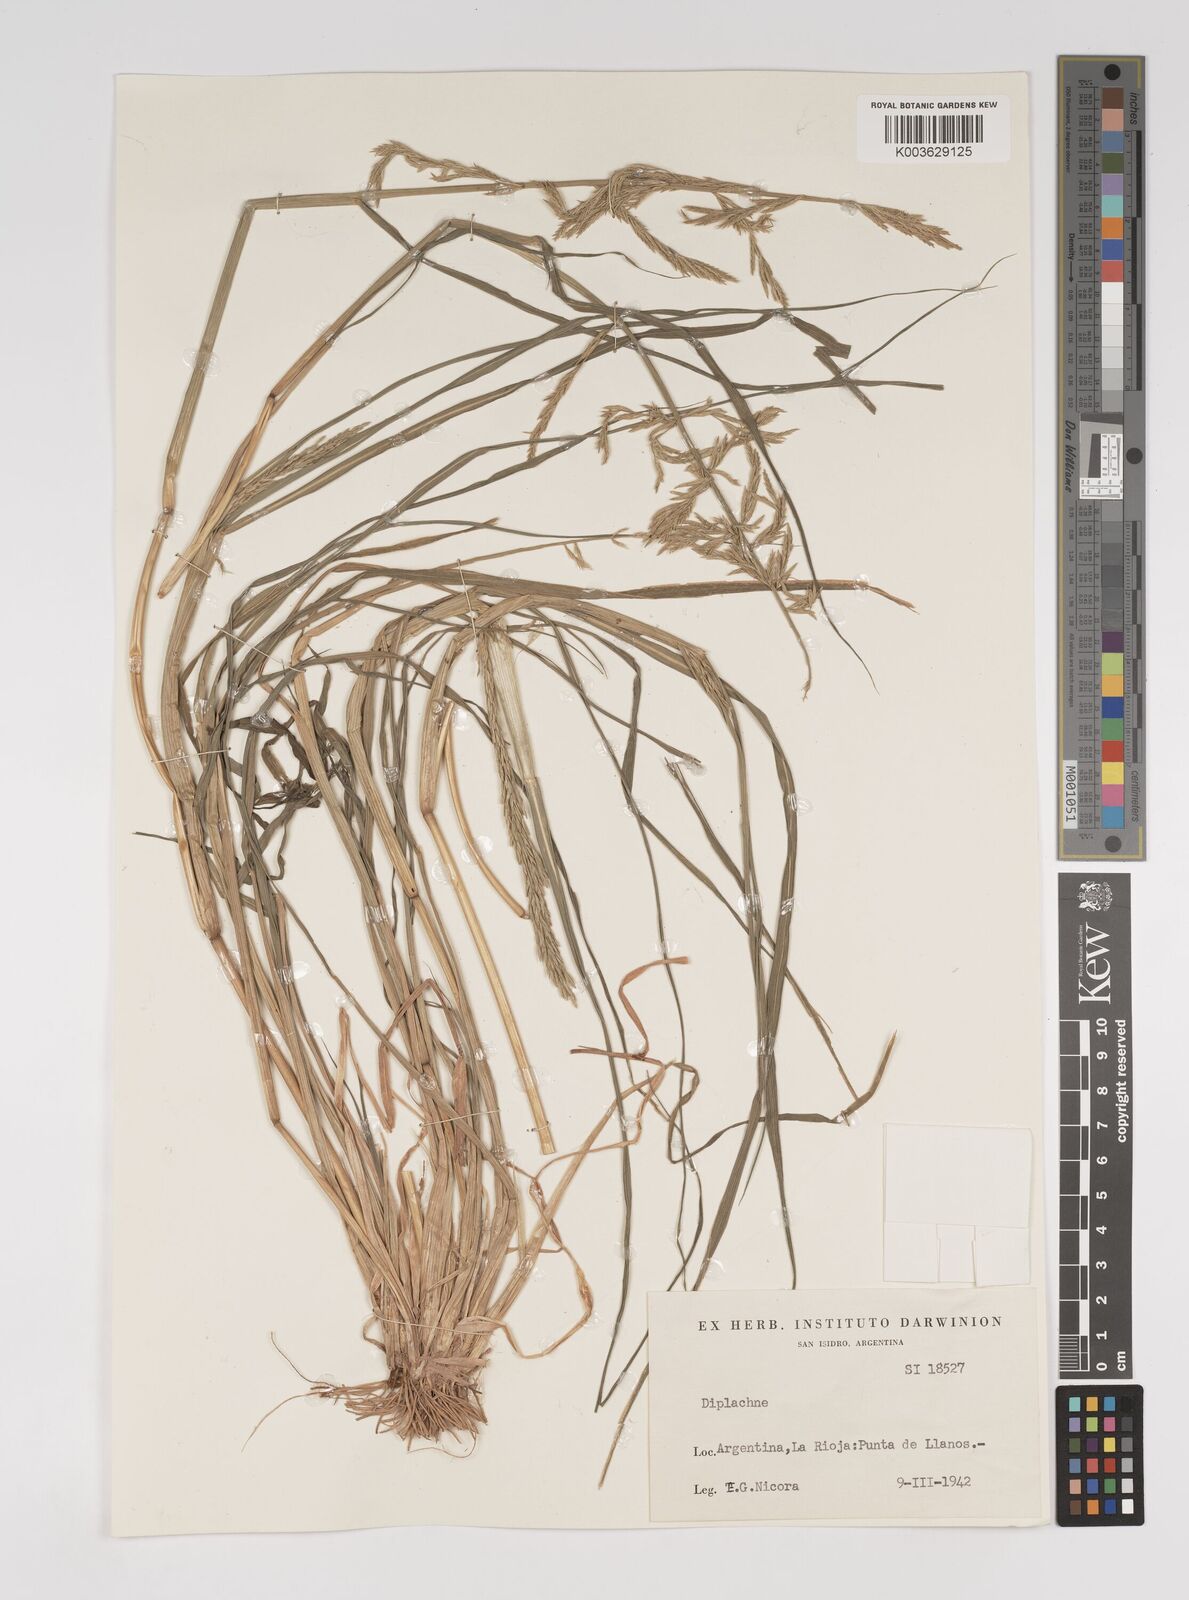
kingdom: Plantae
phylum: Tracheophyta
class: Liliopsida
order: Poales
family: Poaceae
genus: Diplachne
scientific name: Diplachne fusca
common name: Brown beetle grass
